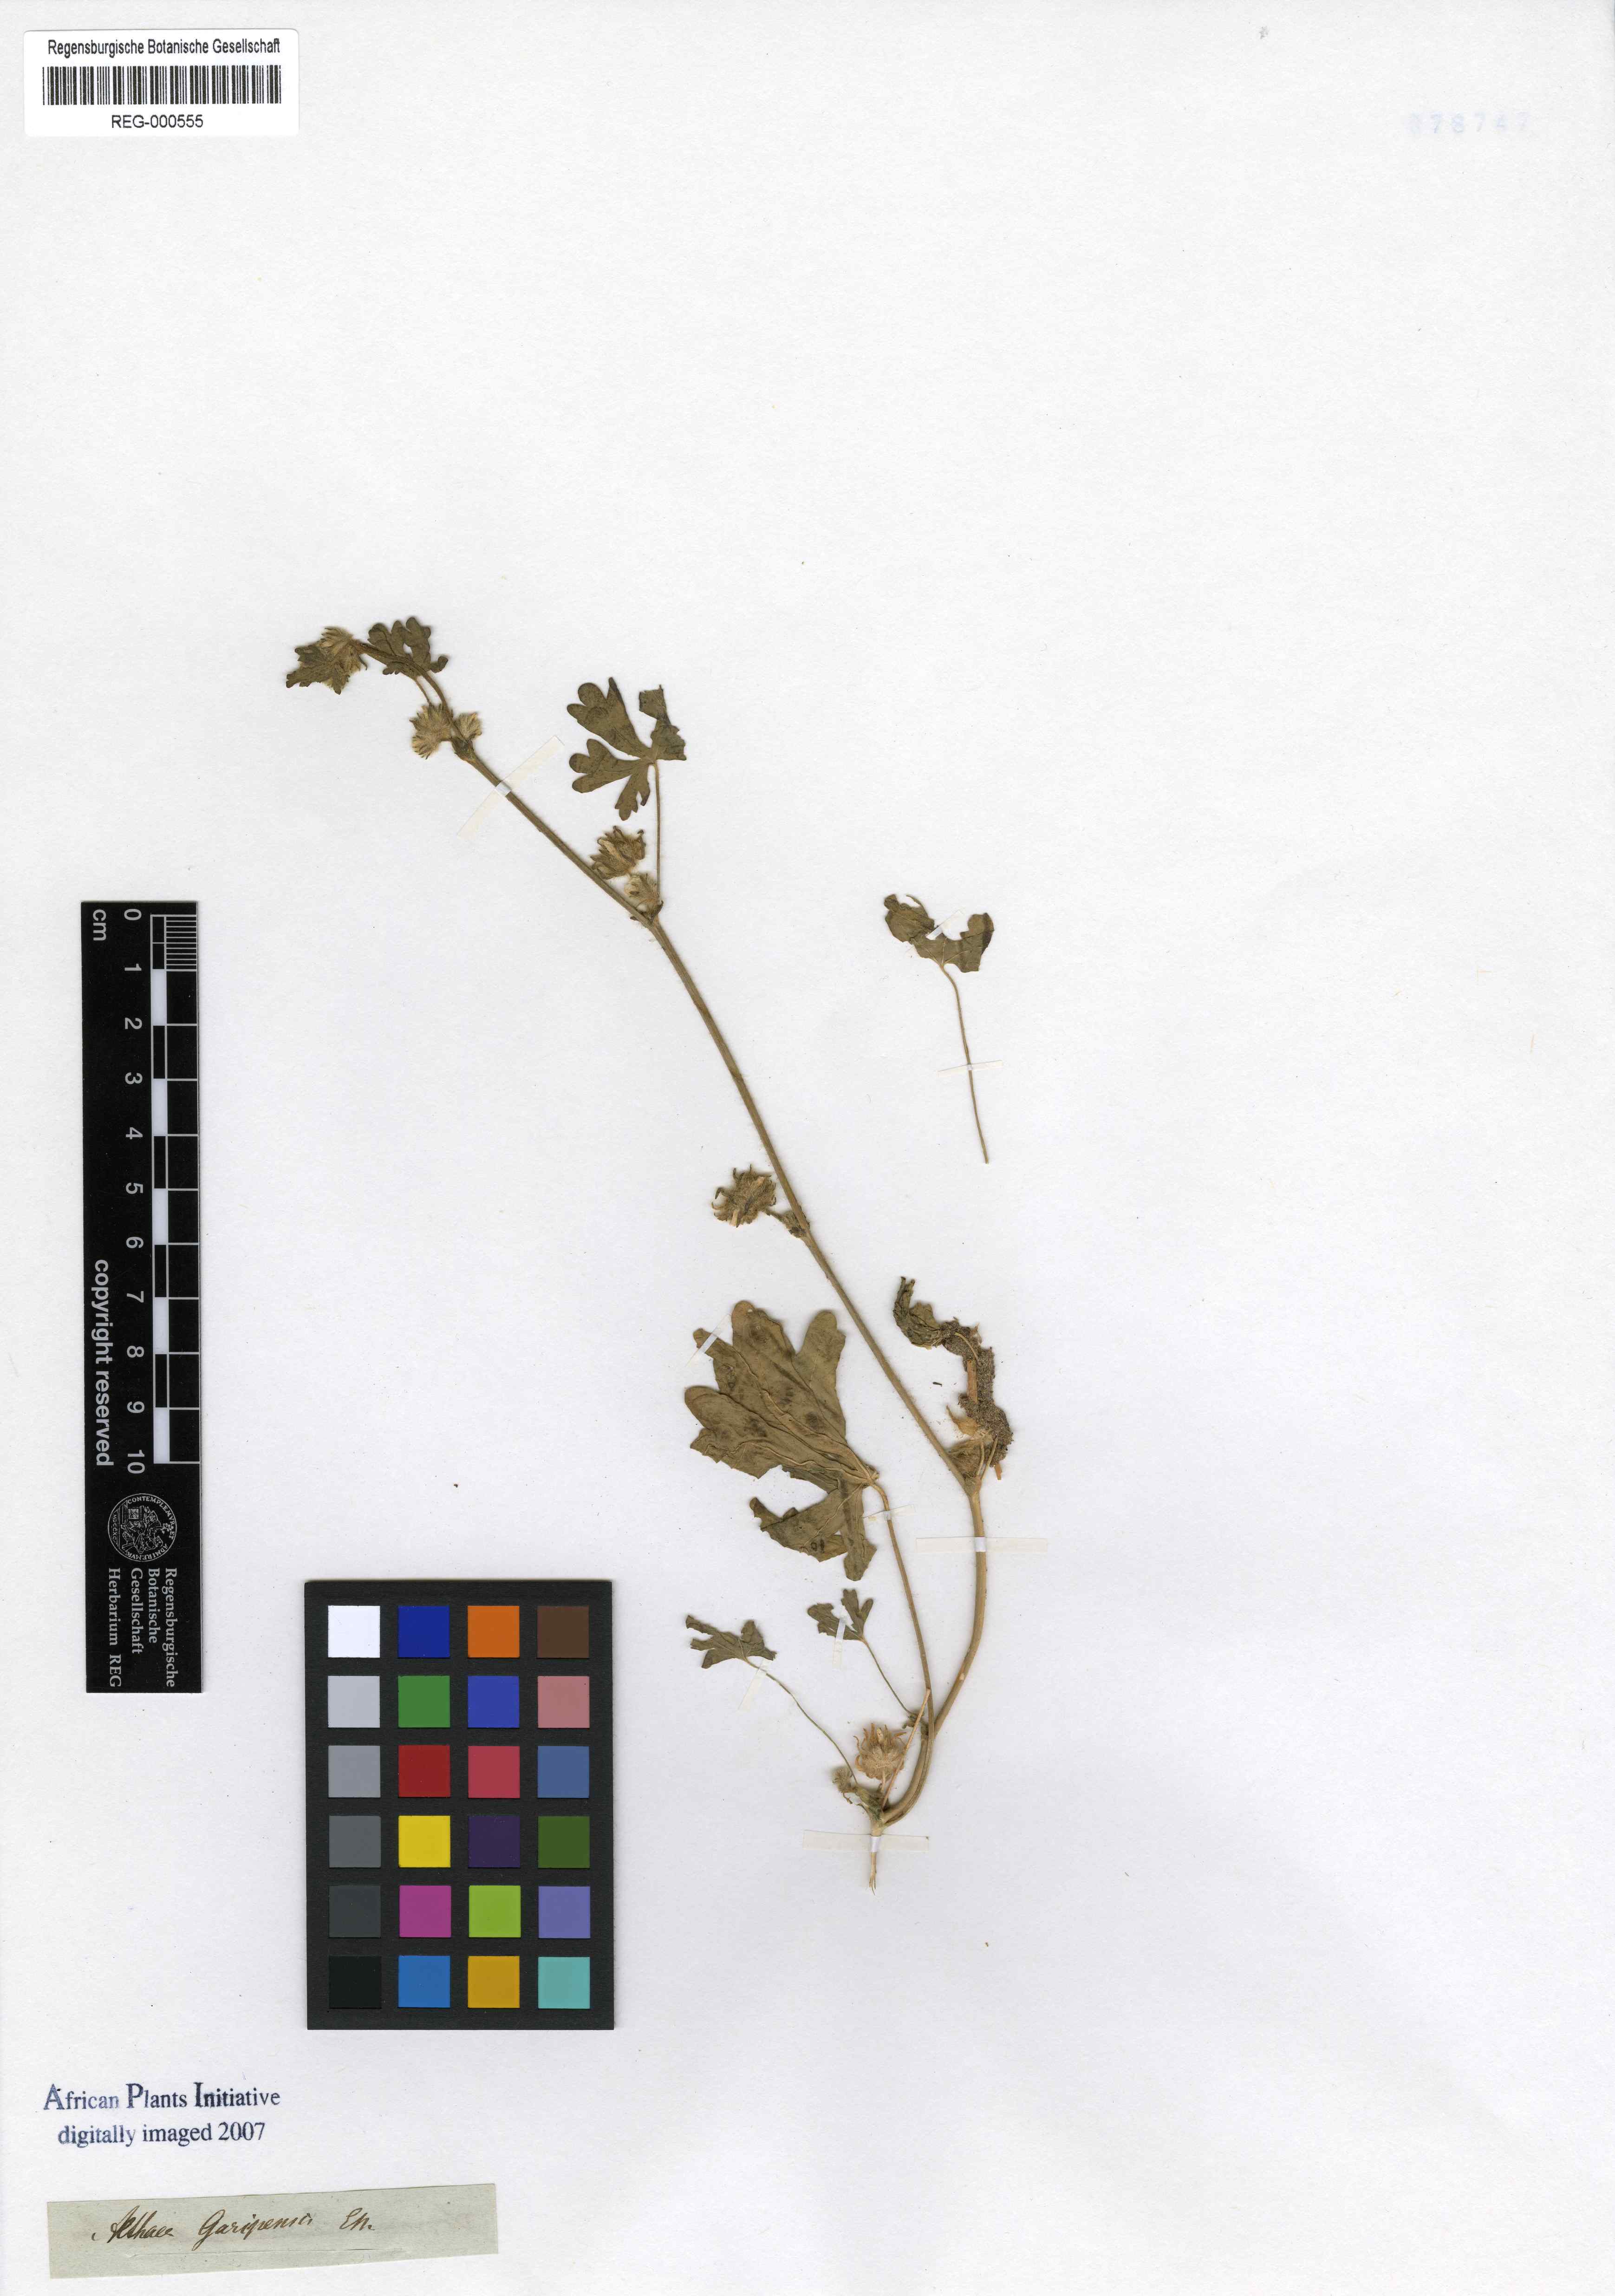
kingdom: Plantae
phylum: Tracheophyta
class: Magnoliopsida
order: Malvales
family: Malvaceae
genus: Malva
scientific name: Malva ludwigii
